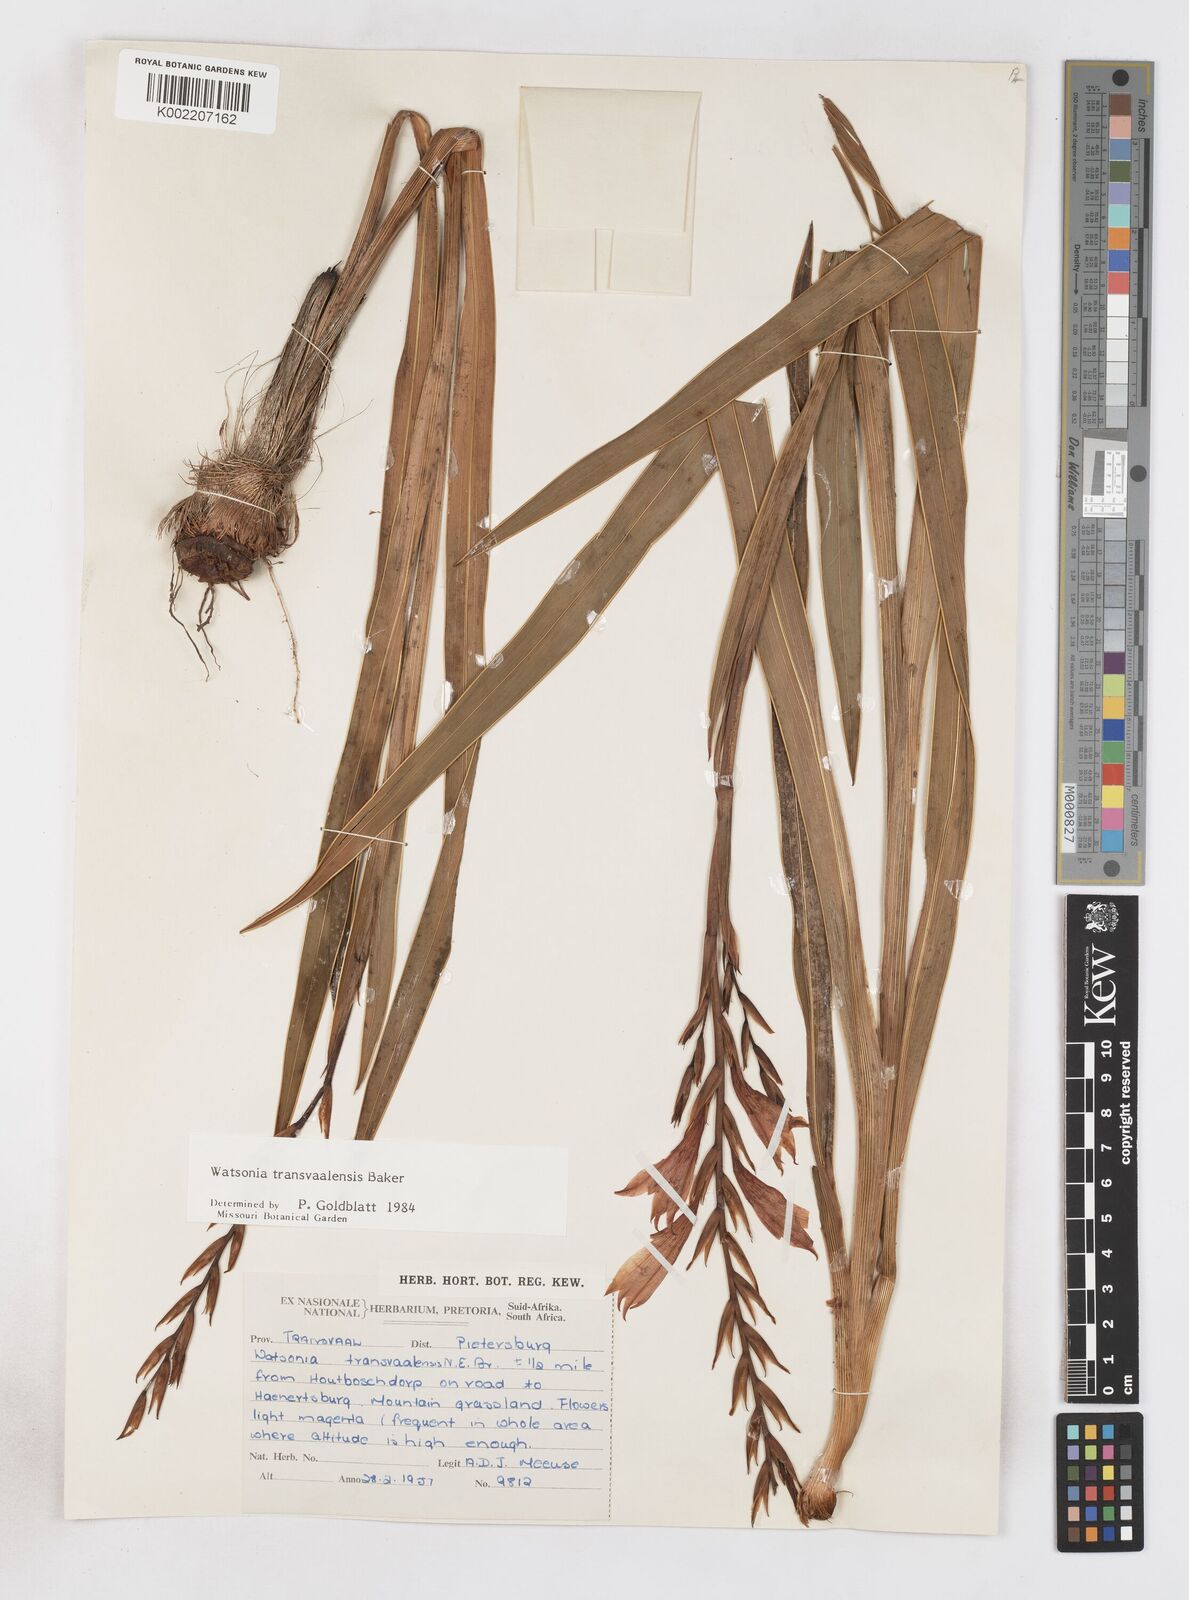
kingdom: Plantae
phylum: Tracheophyta
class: Liliopsida
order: Asparagales
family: Iridaceae
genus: Watsonia
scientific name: Watsonia transvaalensis
